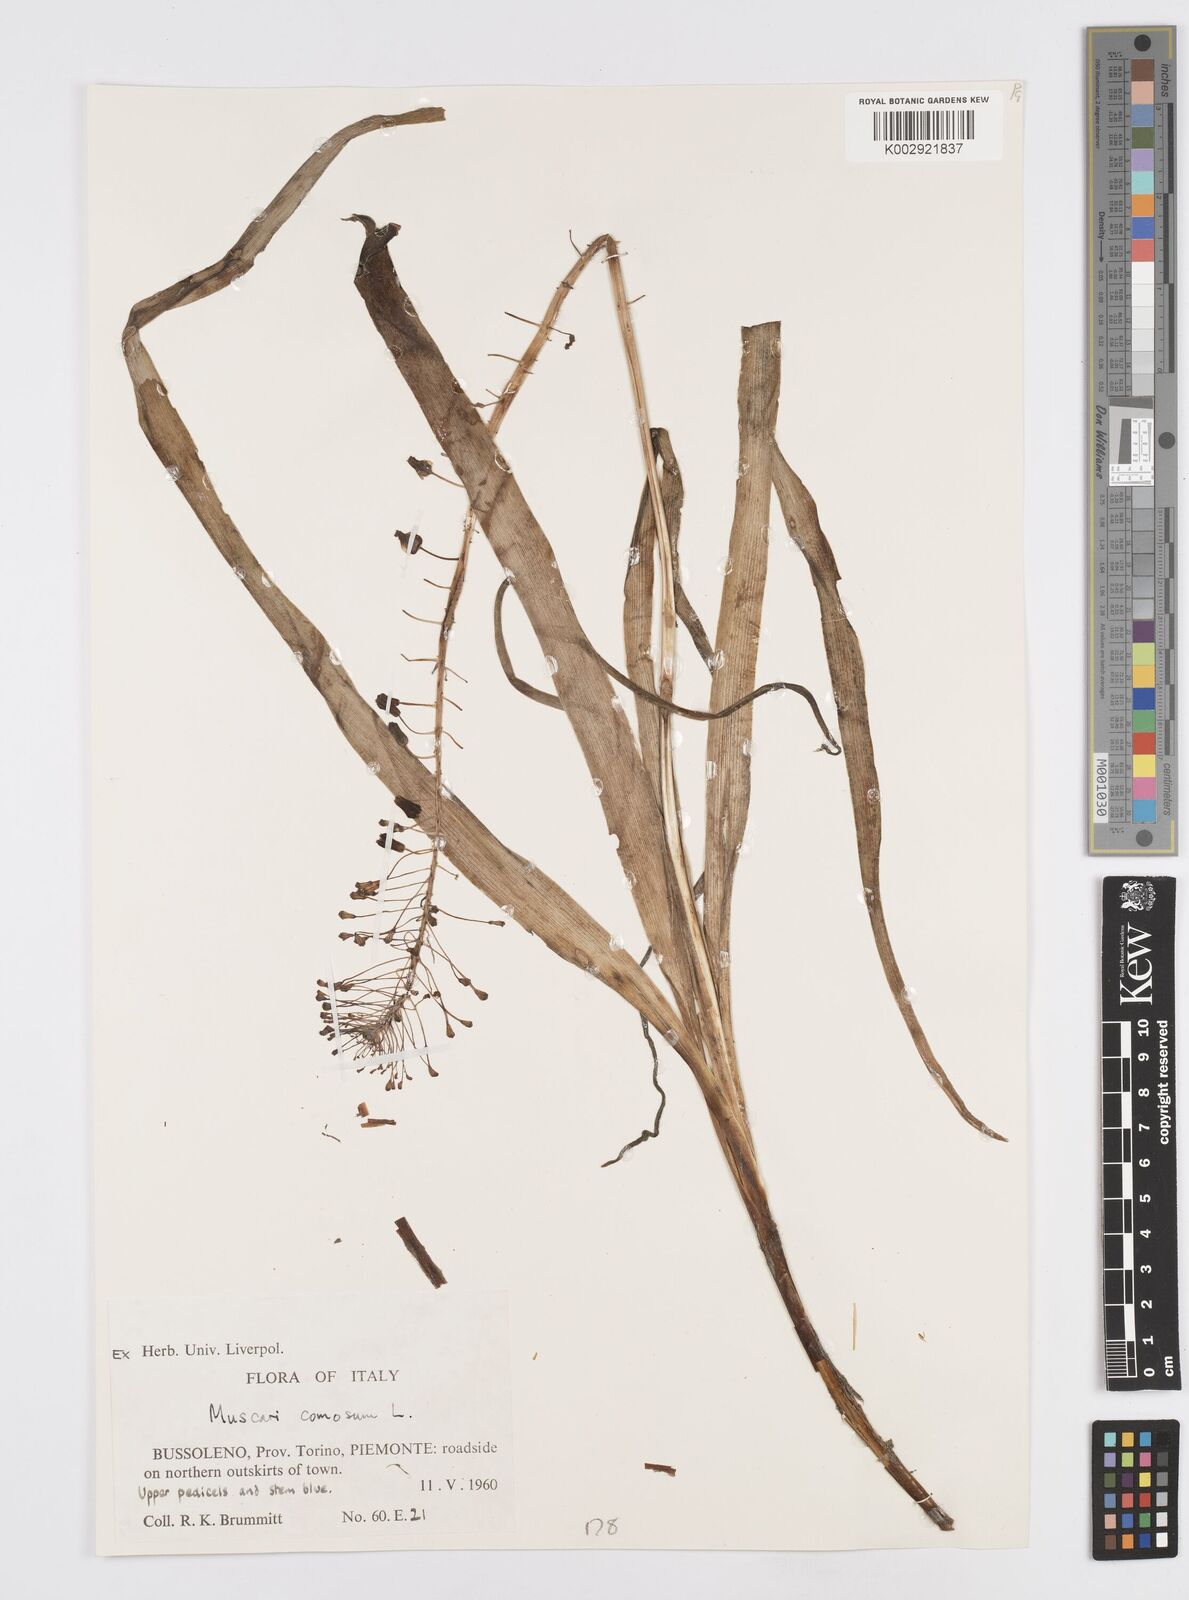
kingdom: Plantae
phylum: Tracheophyta
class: Liliopsida
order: Asparagales
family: Asparagaceae
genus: Muscari
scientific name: Muscari comosum
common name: Tassel hyacinth
